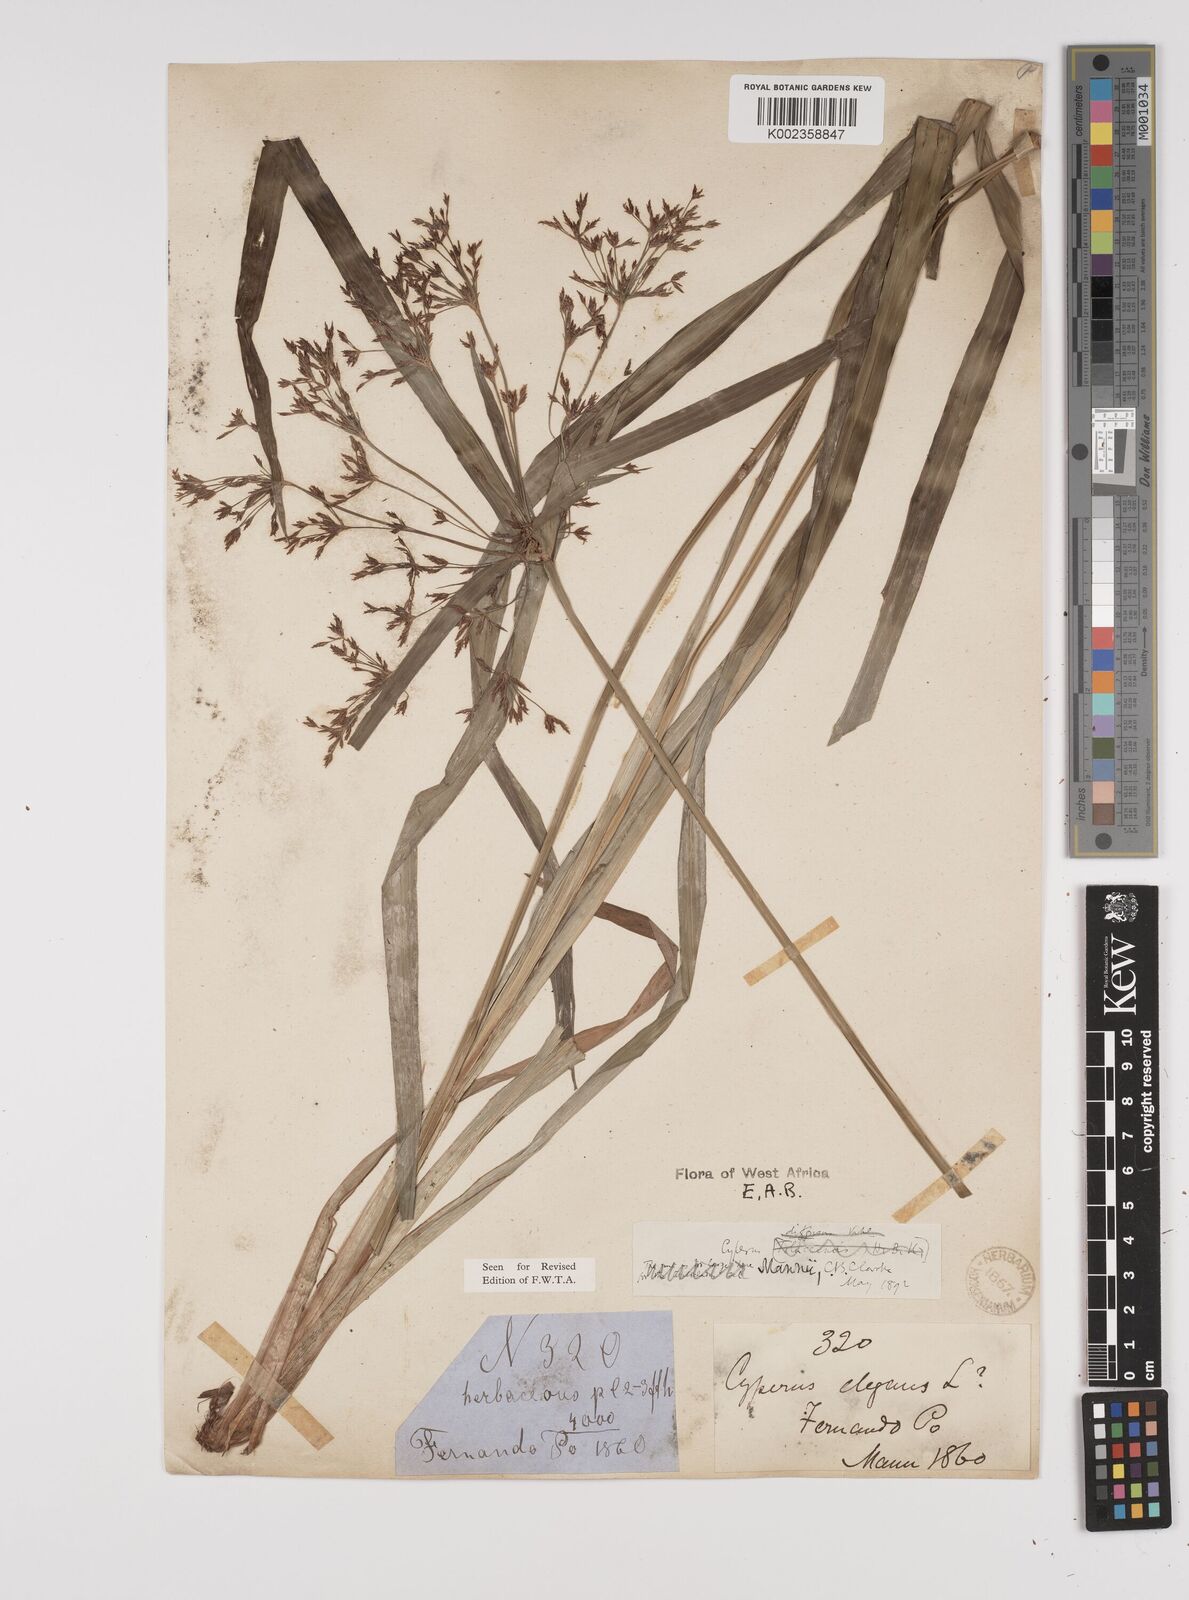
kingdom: Plantae
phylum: Tracheophyta
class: Liliopsida
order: Poales
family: Cyperaceae
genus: Cyperus
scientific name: Cyperus baronii
